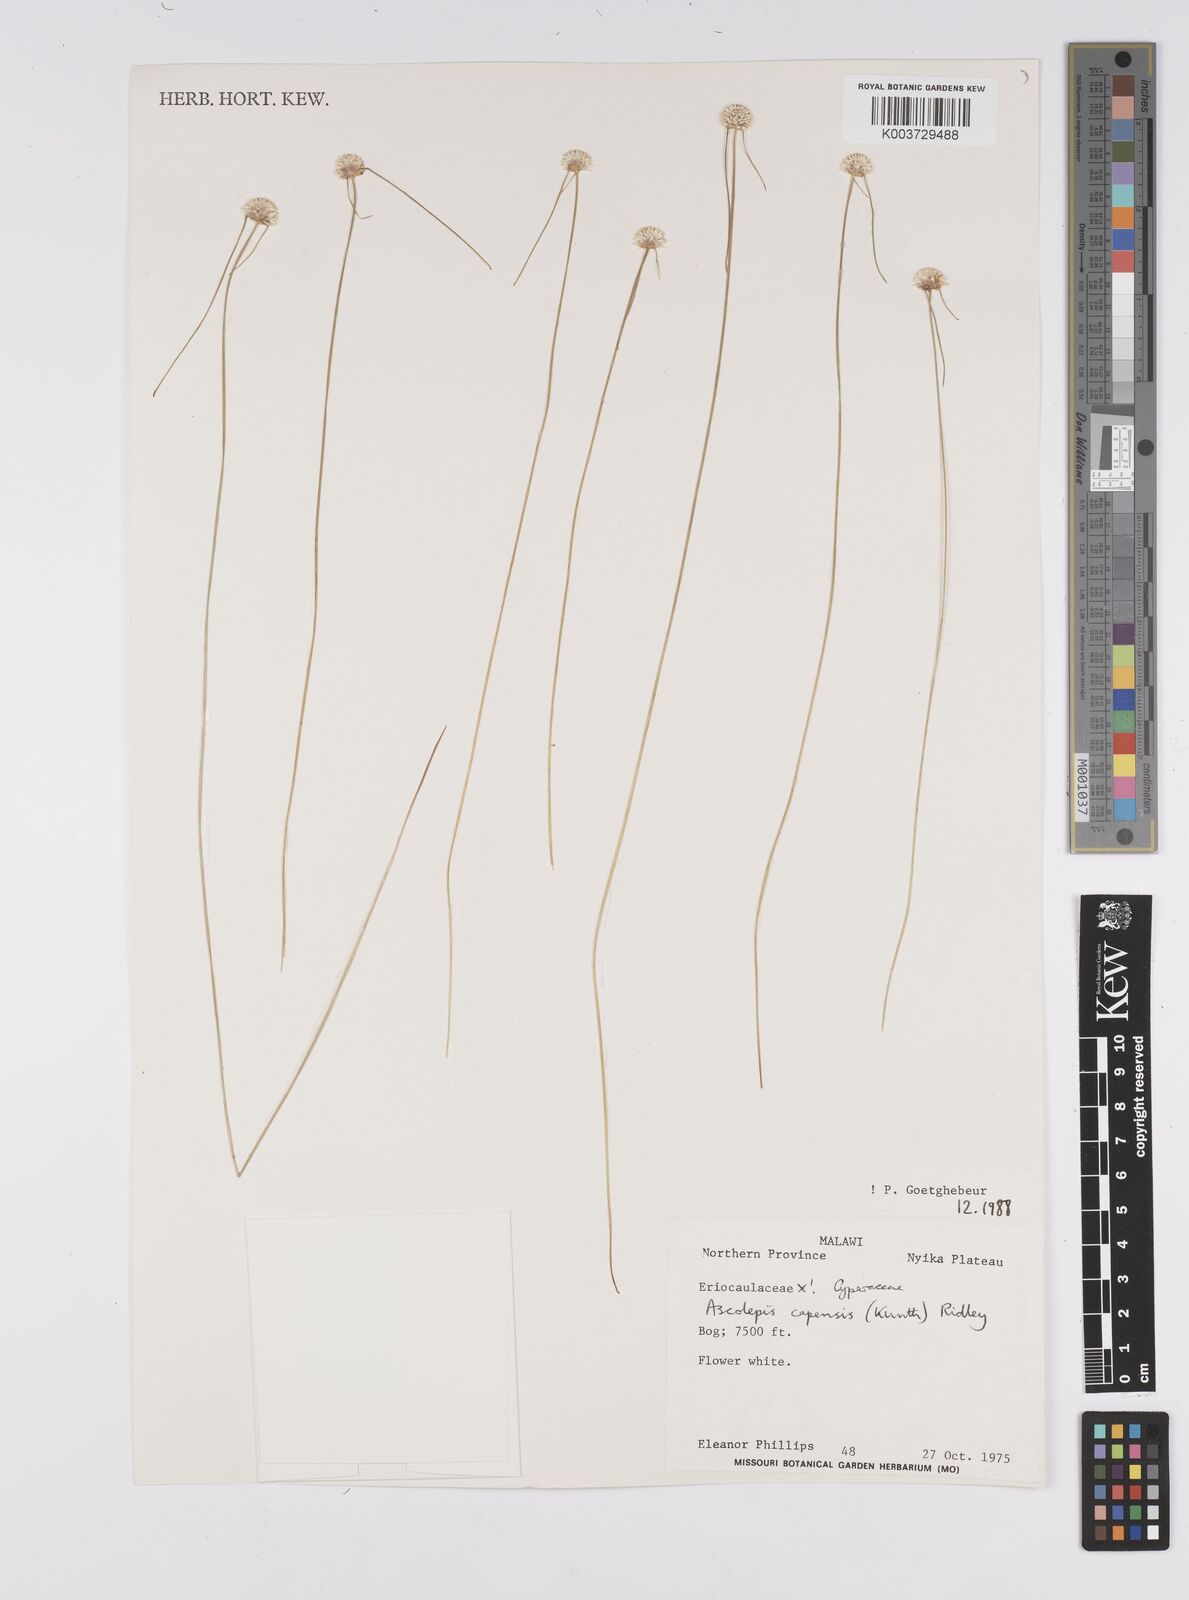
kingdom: Plantae
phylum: Tracheophyta
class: Liliopsida
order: Poales
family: Cyperaceae
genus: Cyperus
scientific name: Cyperus
